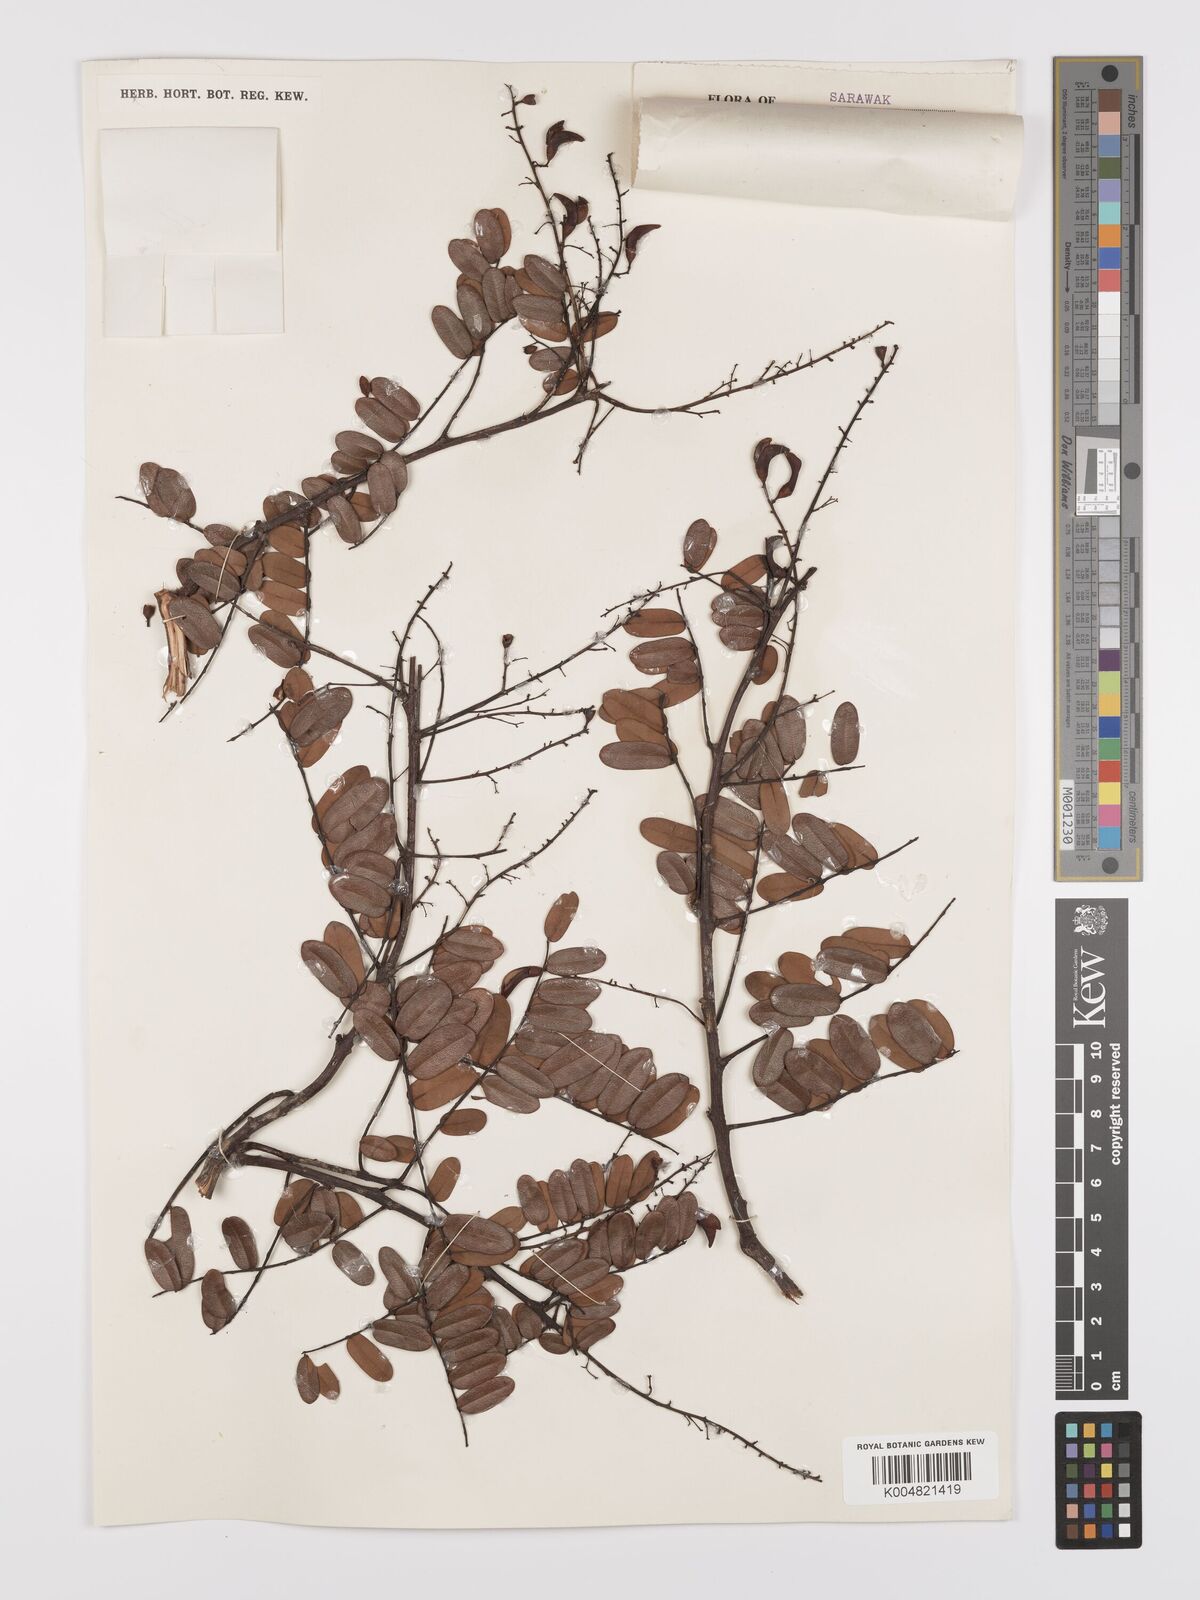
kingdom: Plantae
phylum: Tracheophyta
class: Magnoliopsida
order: Oxalidales
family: Connaraceae
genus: Rourea
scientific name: Rourea mimosoides
